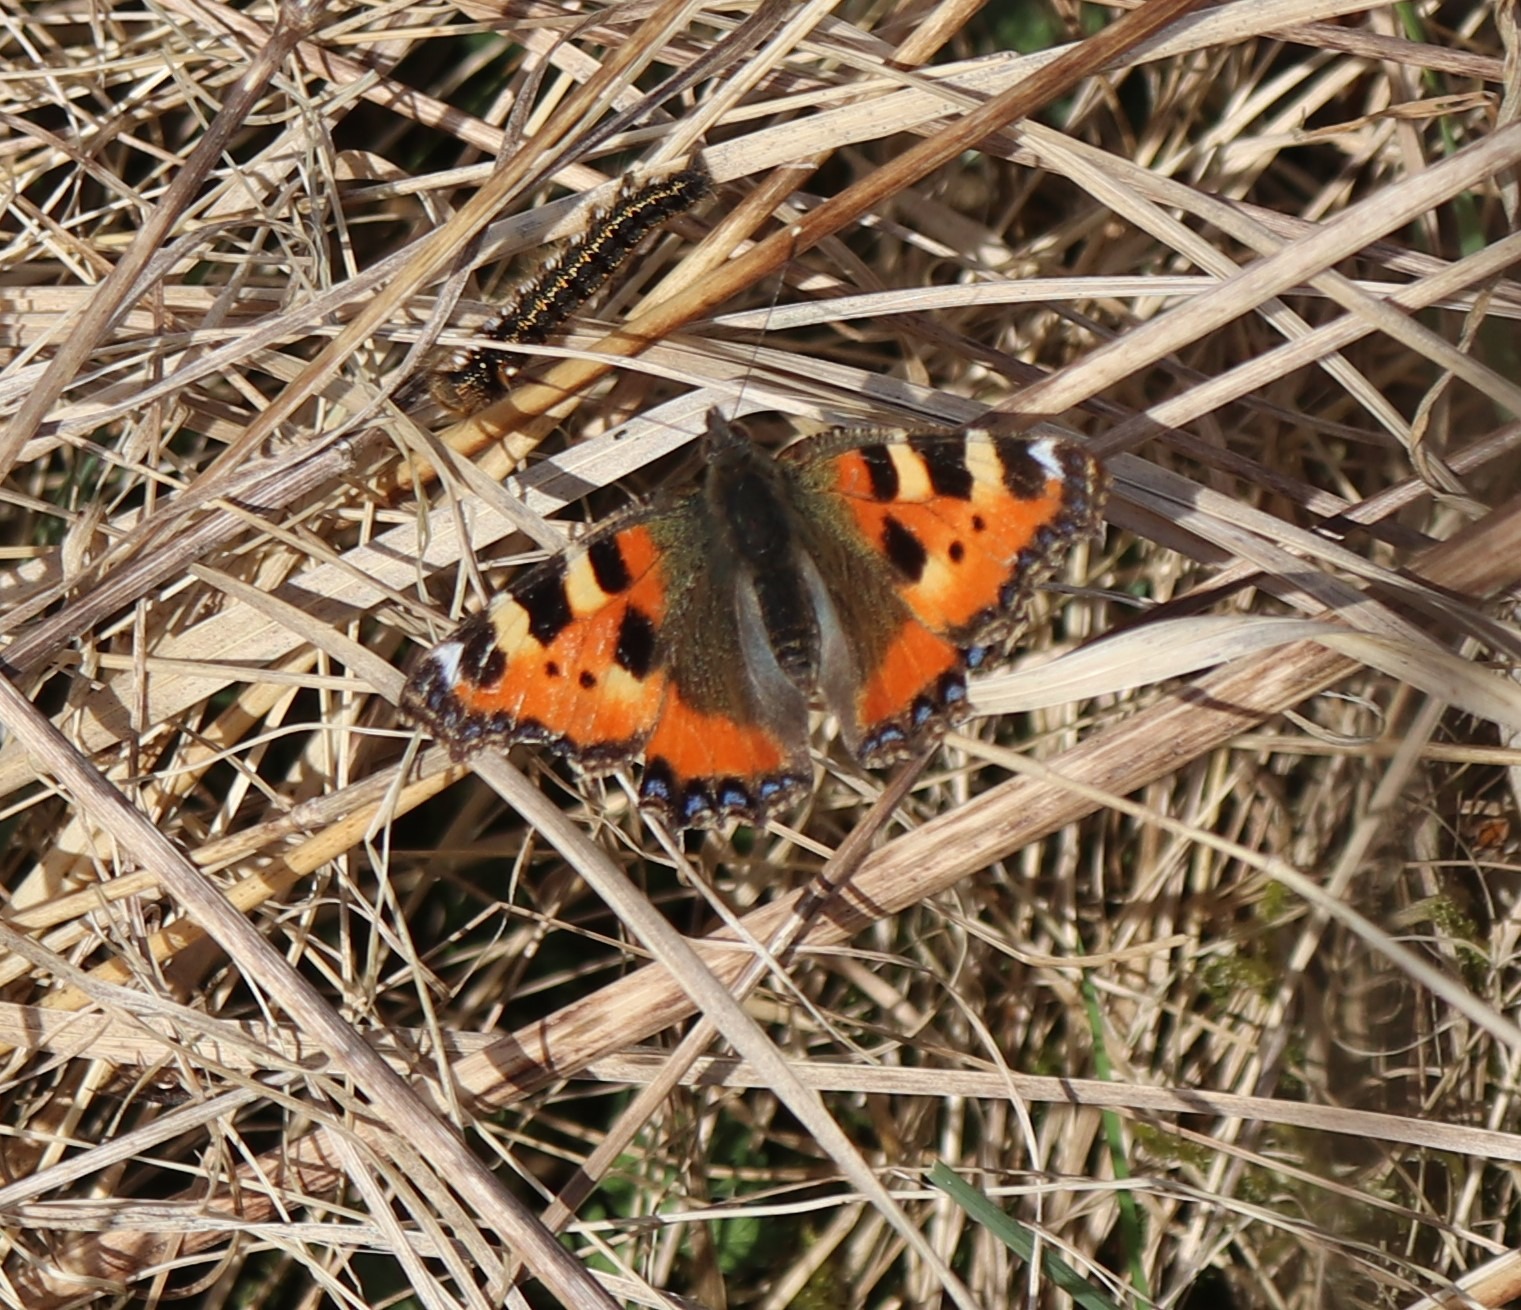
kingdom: Animalia
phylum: Arthropoda
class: Insecta
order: Lepidoptera
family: Nymphalidae
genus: Aglais
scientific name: Aglais urticae
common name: Nældens takvinge
